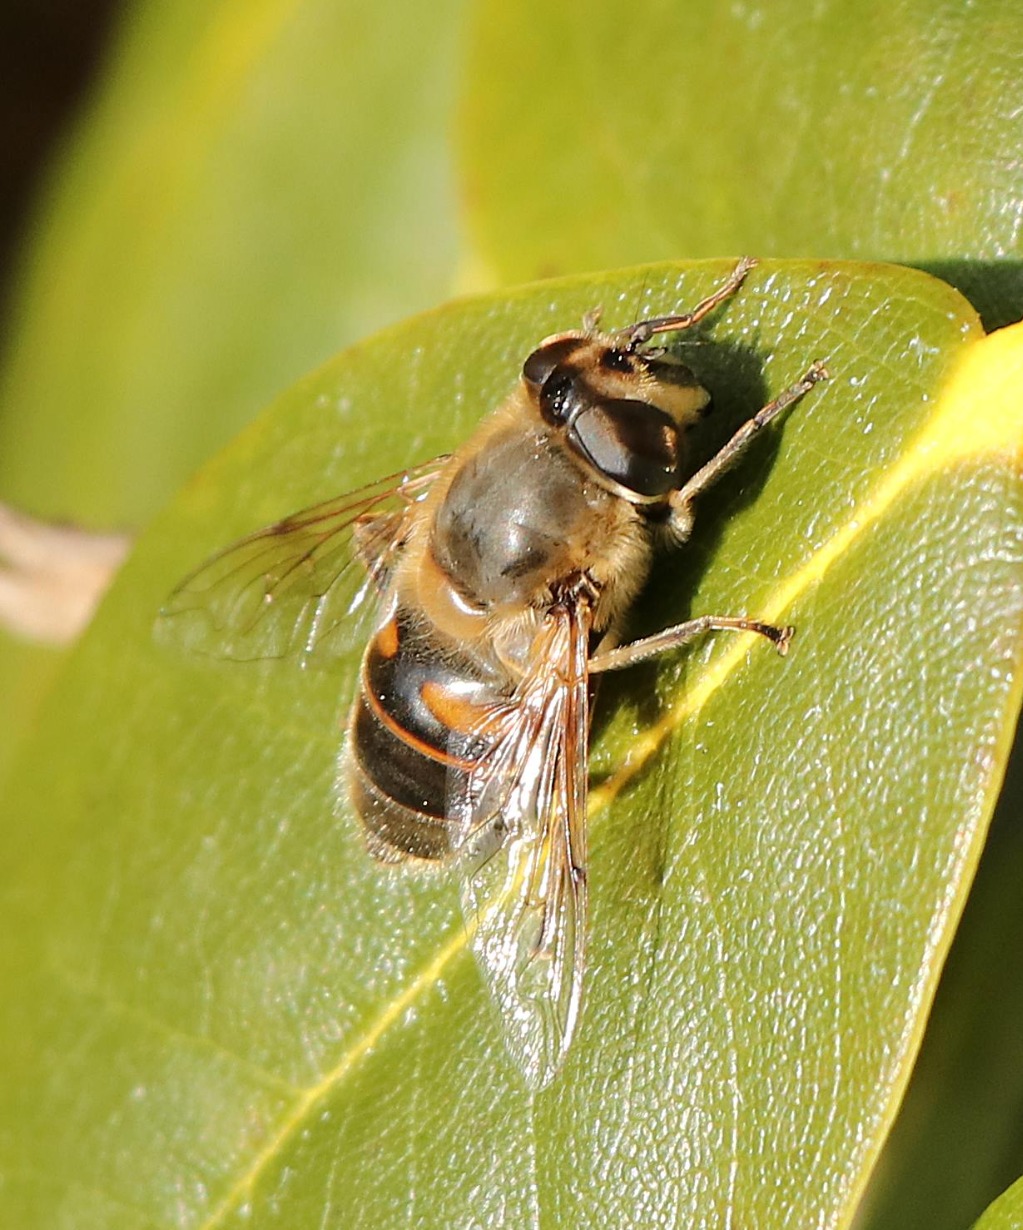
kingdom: Animalia
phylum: Arthropoda
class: Insecta
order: Diptera
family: Syrphidae
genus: Eristalis
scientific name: Eristalis tenax
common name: Droneflue
